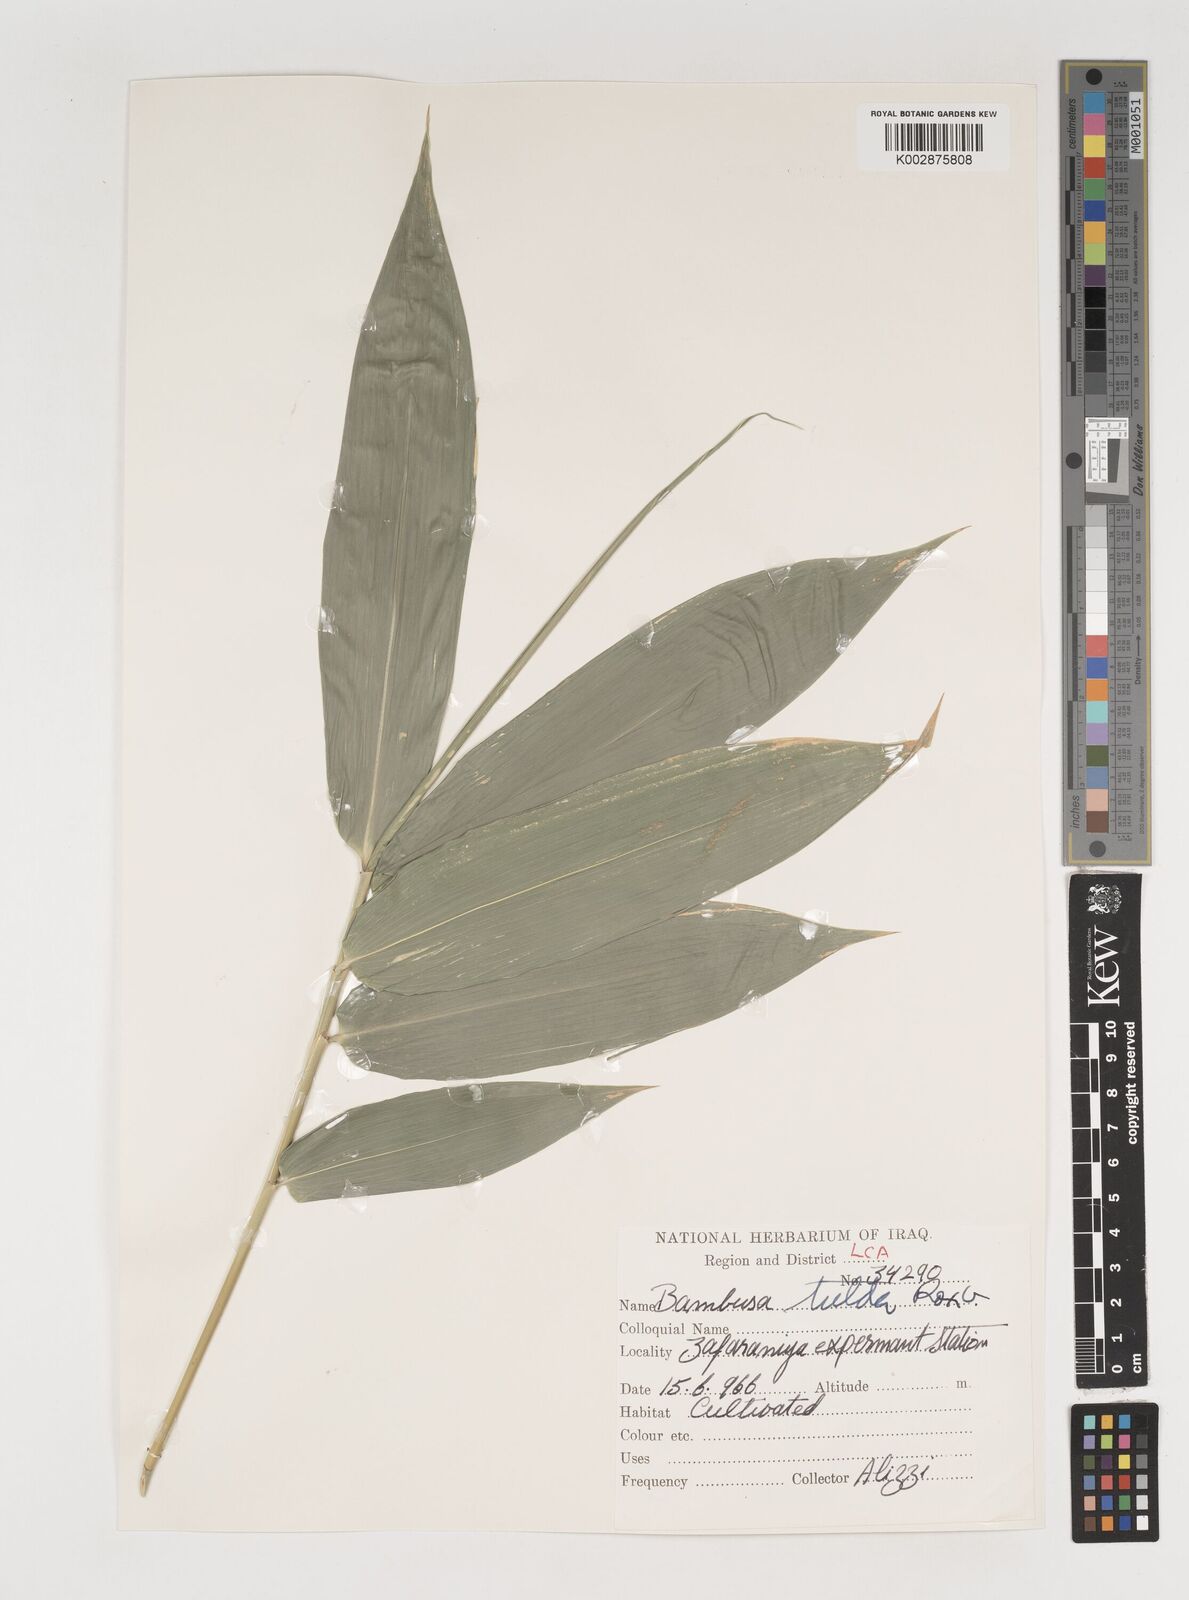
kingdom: Plantae
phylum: Tracheophyta
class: Liliopsida
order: Poales
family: Poaceae
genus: Bambusa
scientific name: Bambusa tulda
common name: Bengal bamboo
